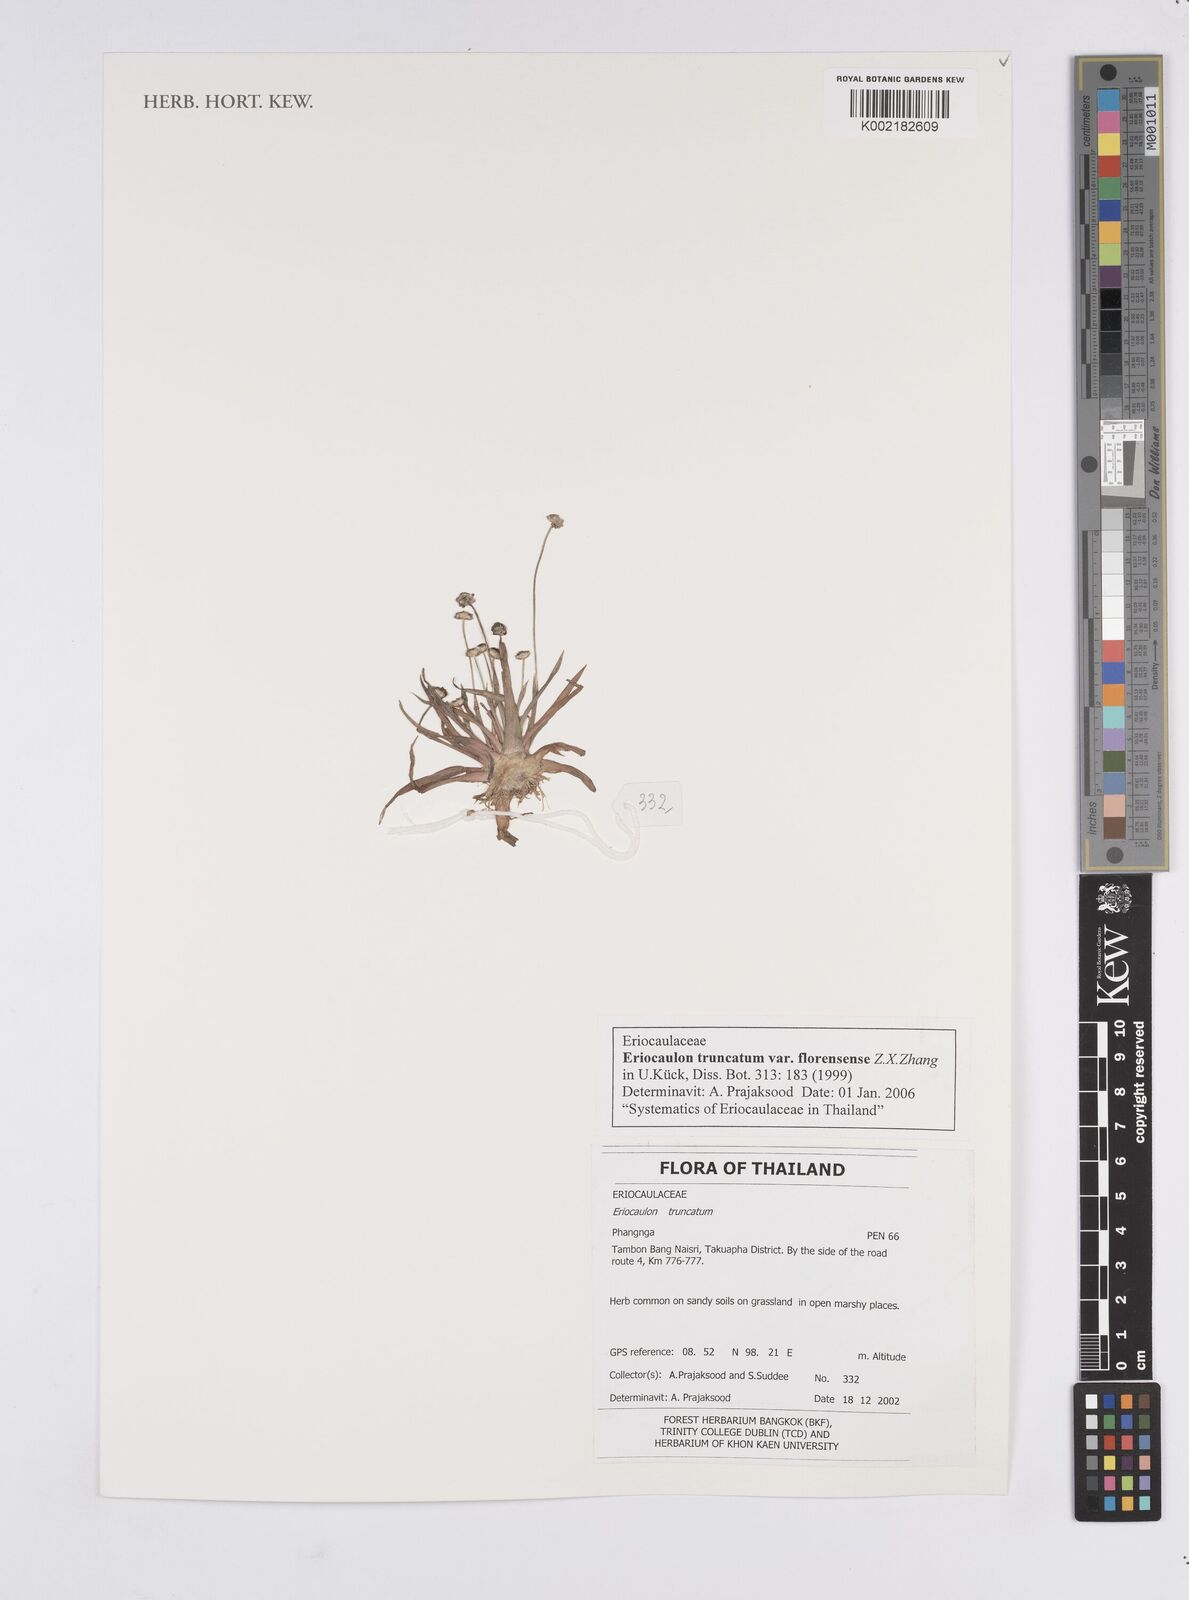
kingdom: Plantae
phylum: Tracheophyta
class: Liliopsida
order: Poales
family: Eriocaulaceae
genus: Eriocaulon
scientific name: Eriocaulon truncatum
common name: Short pipe-wort
